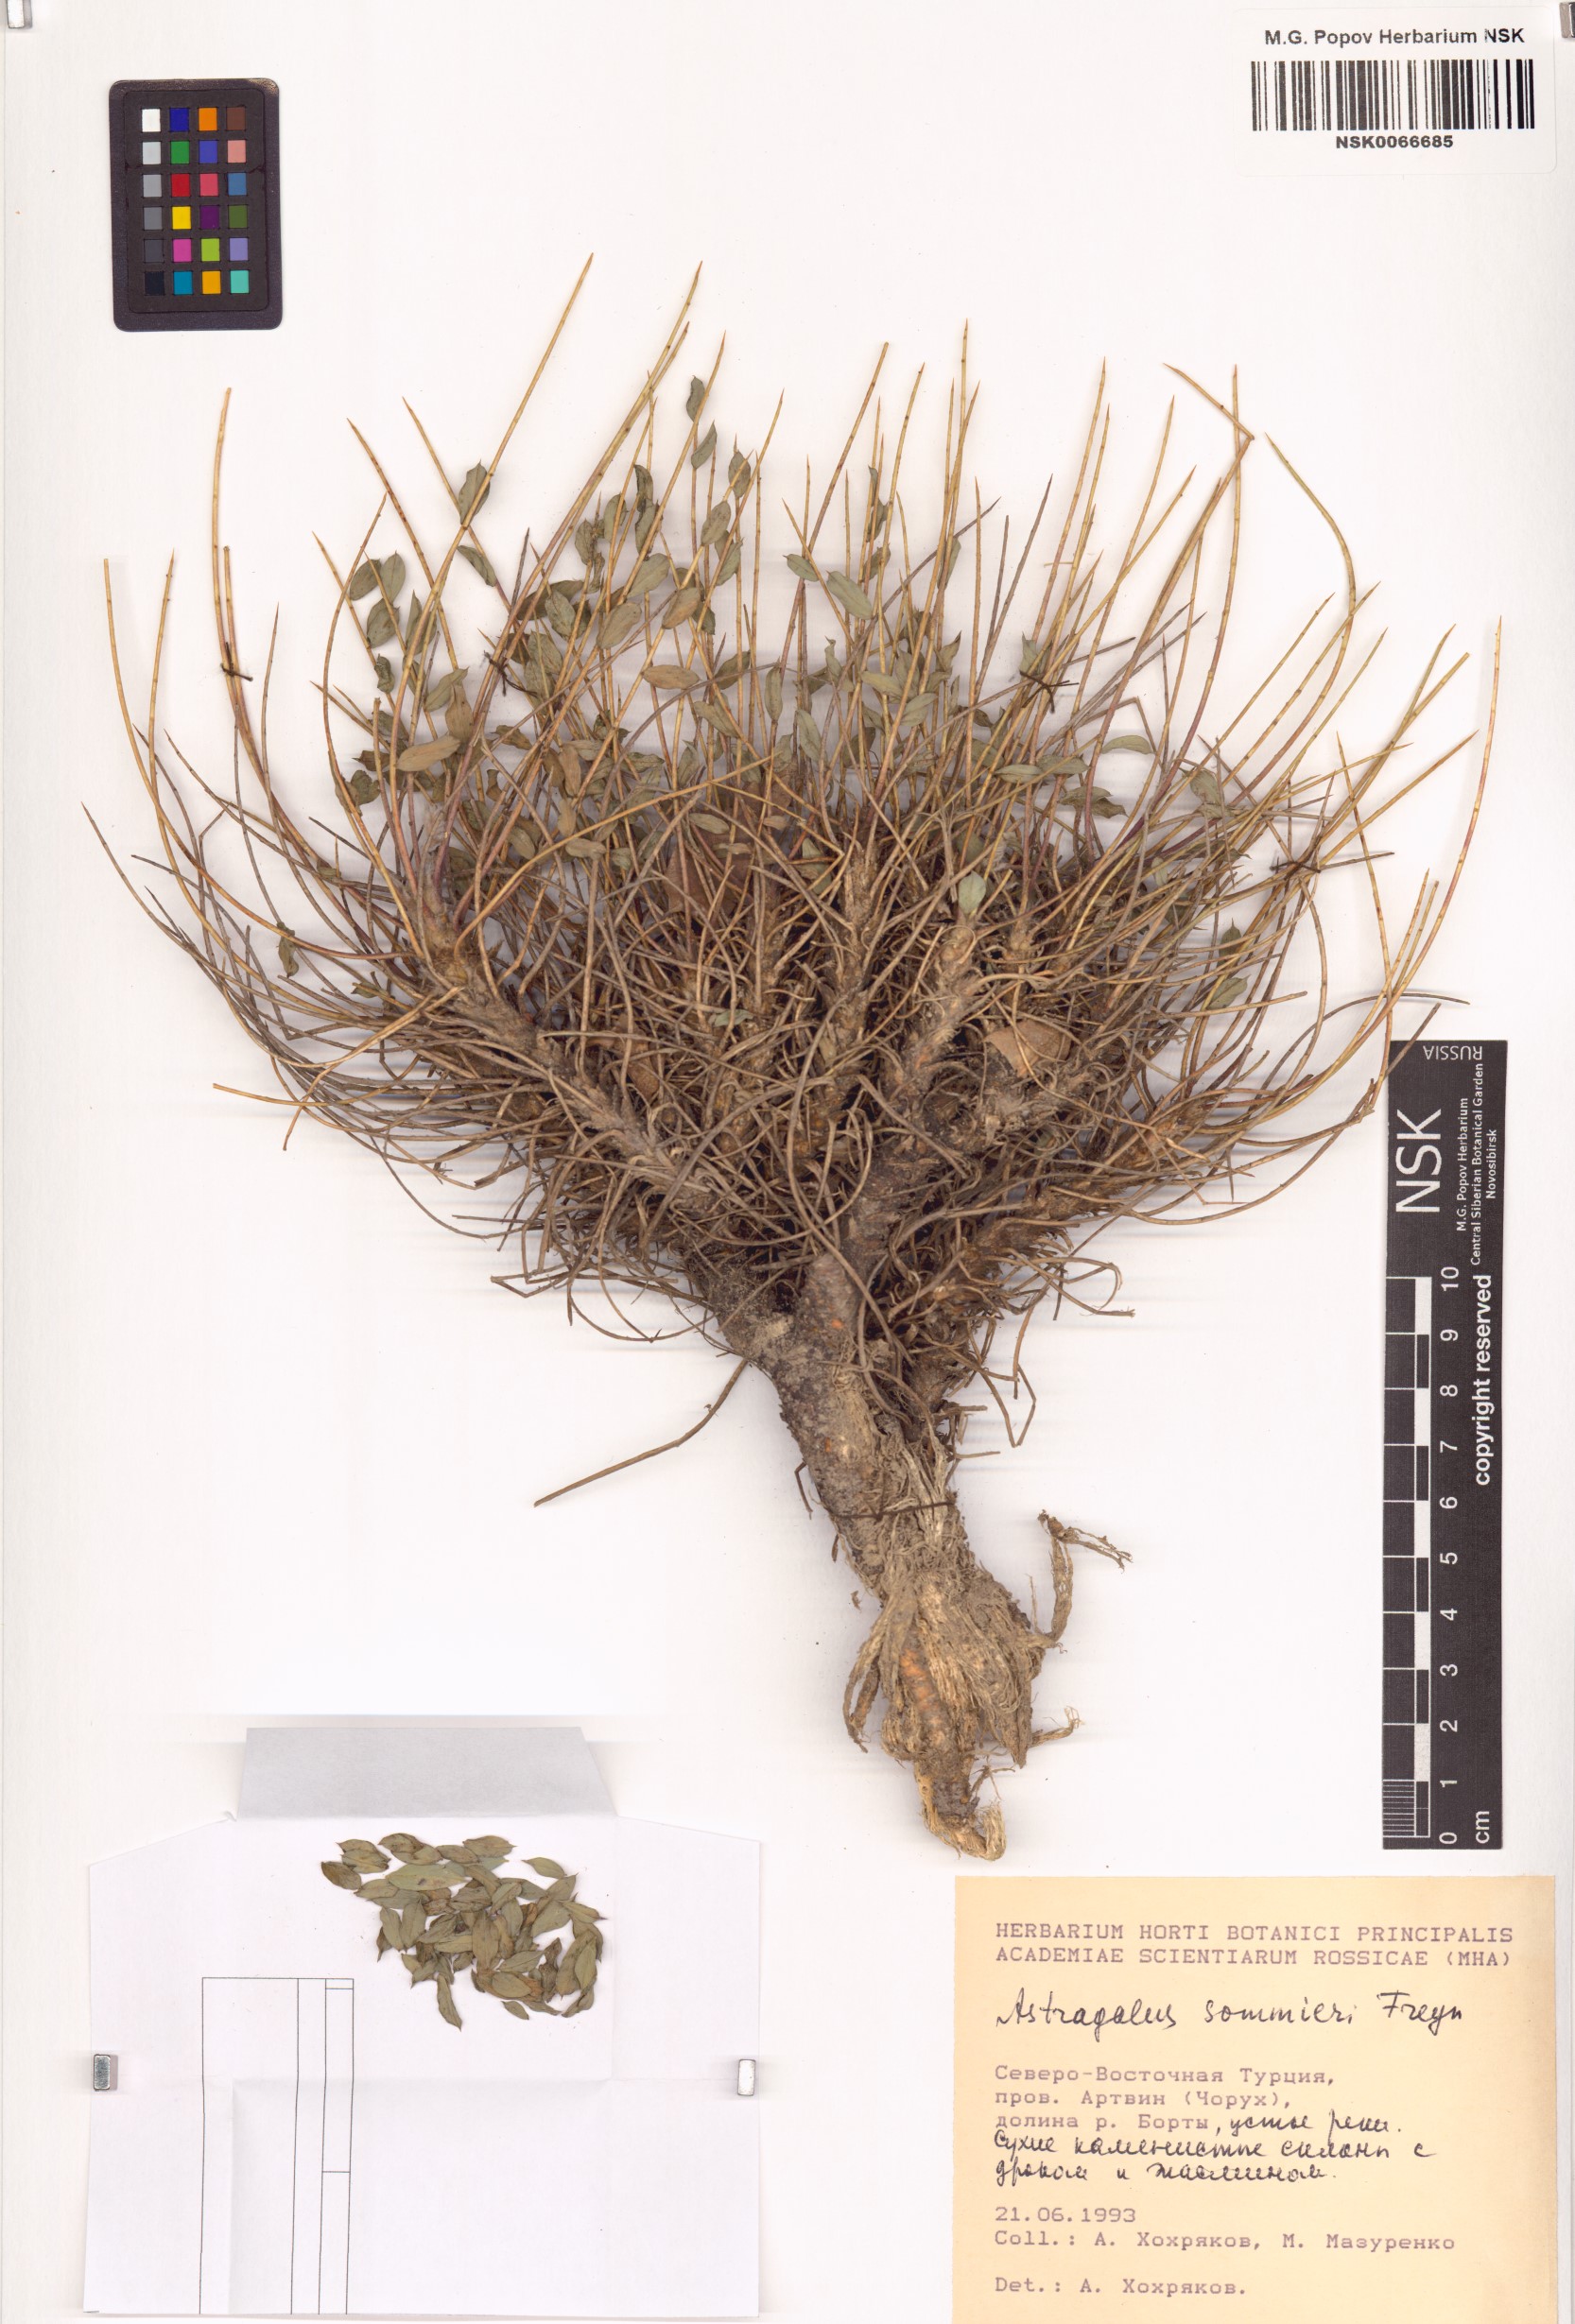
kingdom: Plantae
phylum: Tracheophyta
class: Magnoliopsida
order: Fabales
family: Fabaceae
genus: Astragalus
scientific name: Astragalus cephalotes
